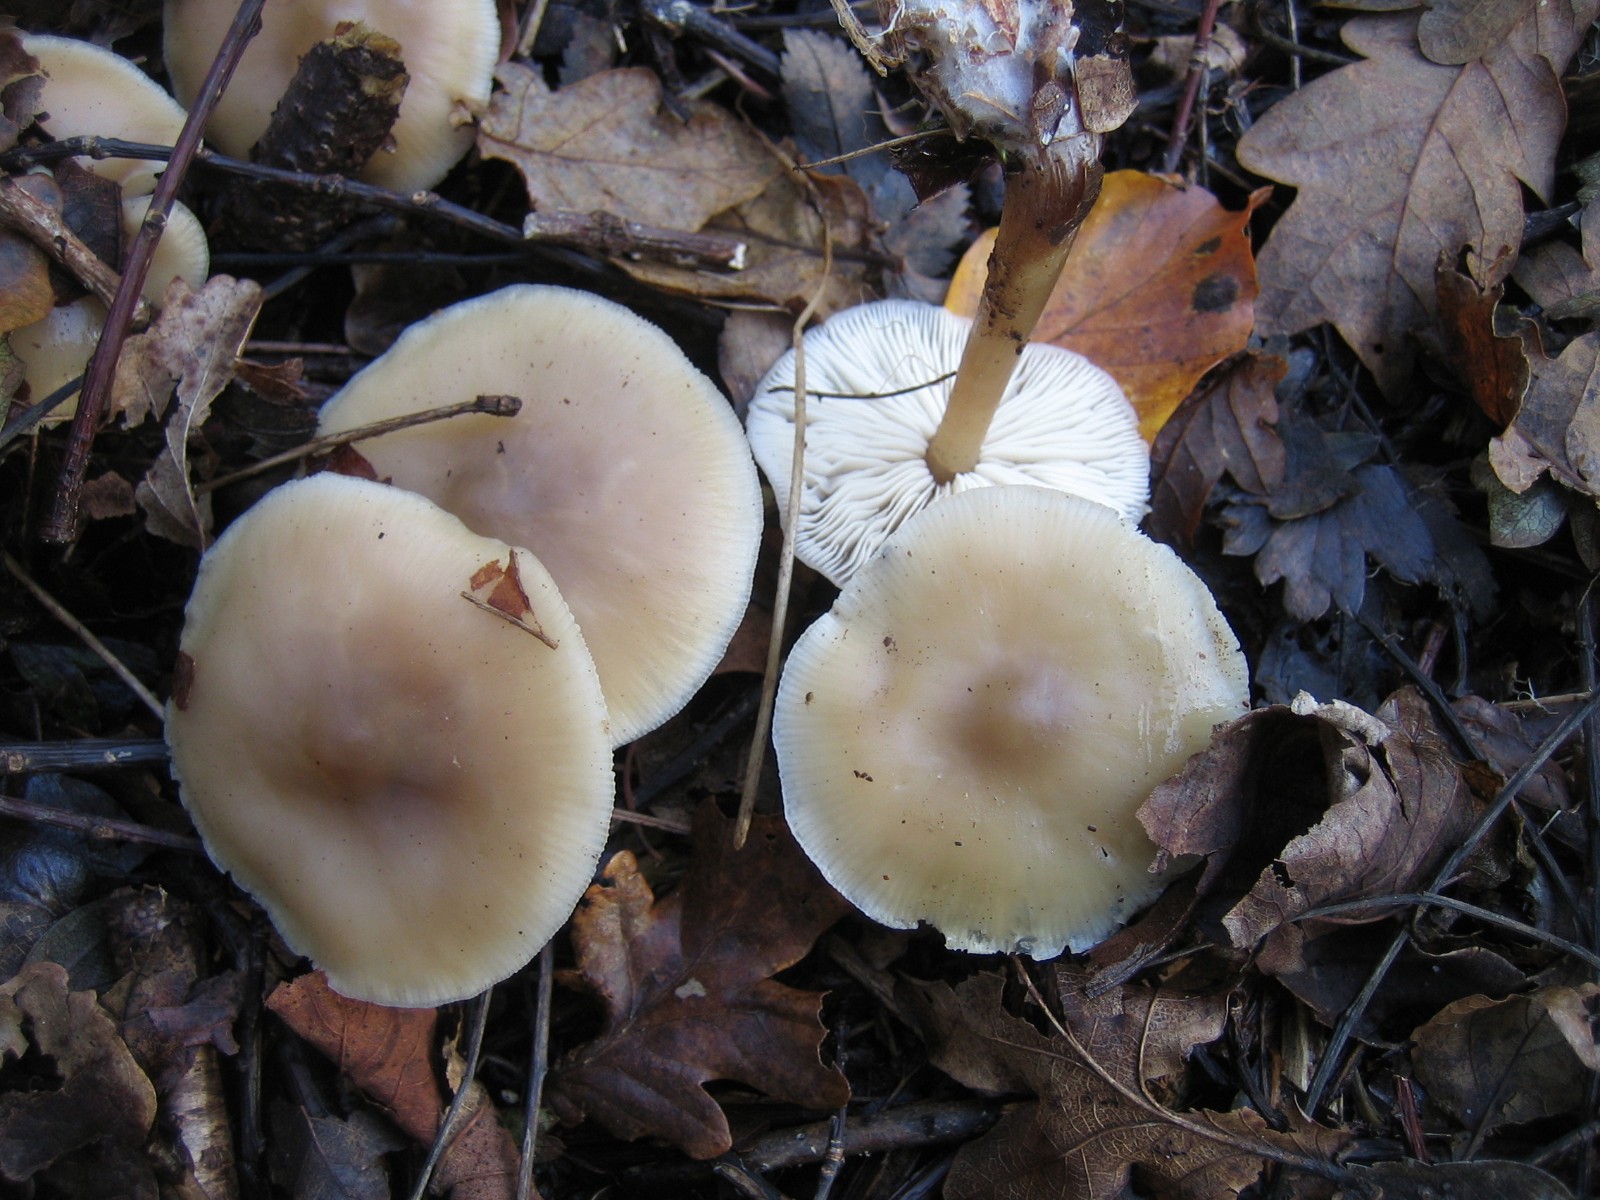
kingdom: Fungi
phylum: Basidiomycota
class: Agaricomycetes
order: Agaricales
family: Omphalotaceae
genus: Rhodocollybia
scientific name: Rhodocollybia asema
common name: horngrå fladhat
